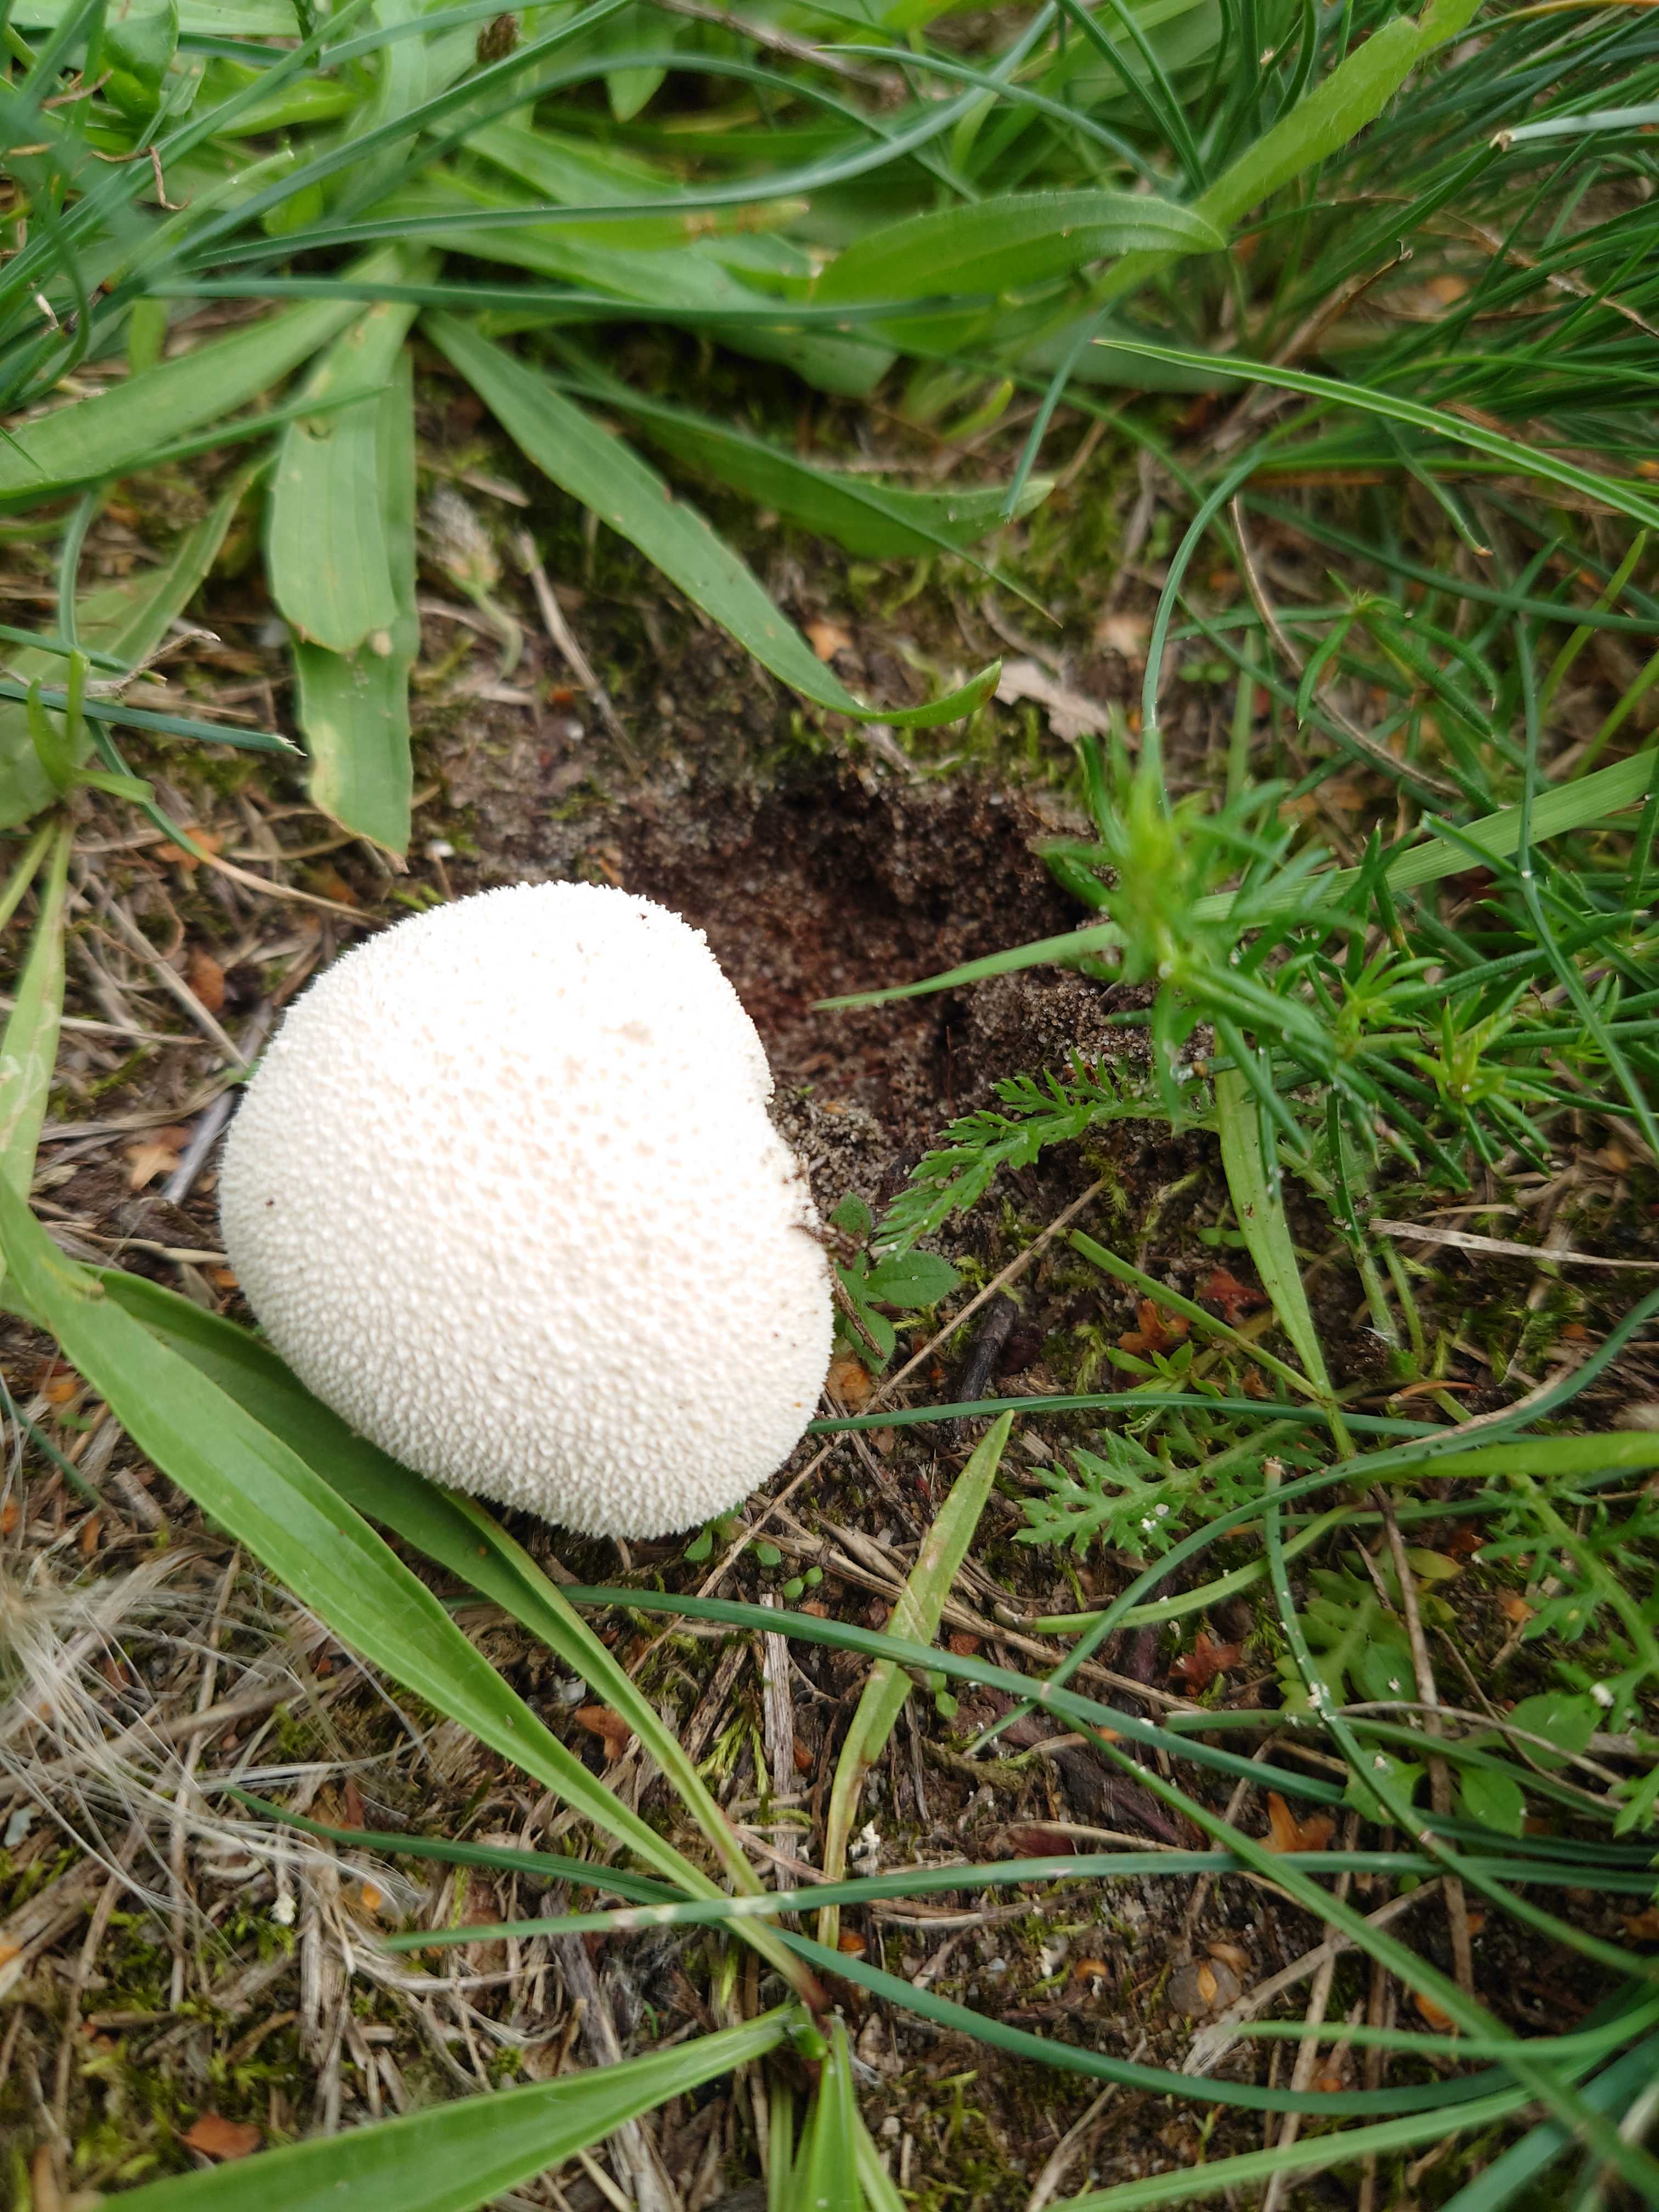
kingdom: Fungi
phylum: Basidiomycota
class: Agaricomycetes
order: Agaricales
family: Lycoperdaceae
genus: Lycoperdon
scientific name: Lycoperdon pratense
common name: flad støvbold
